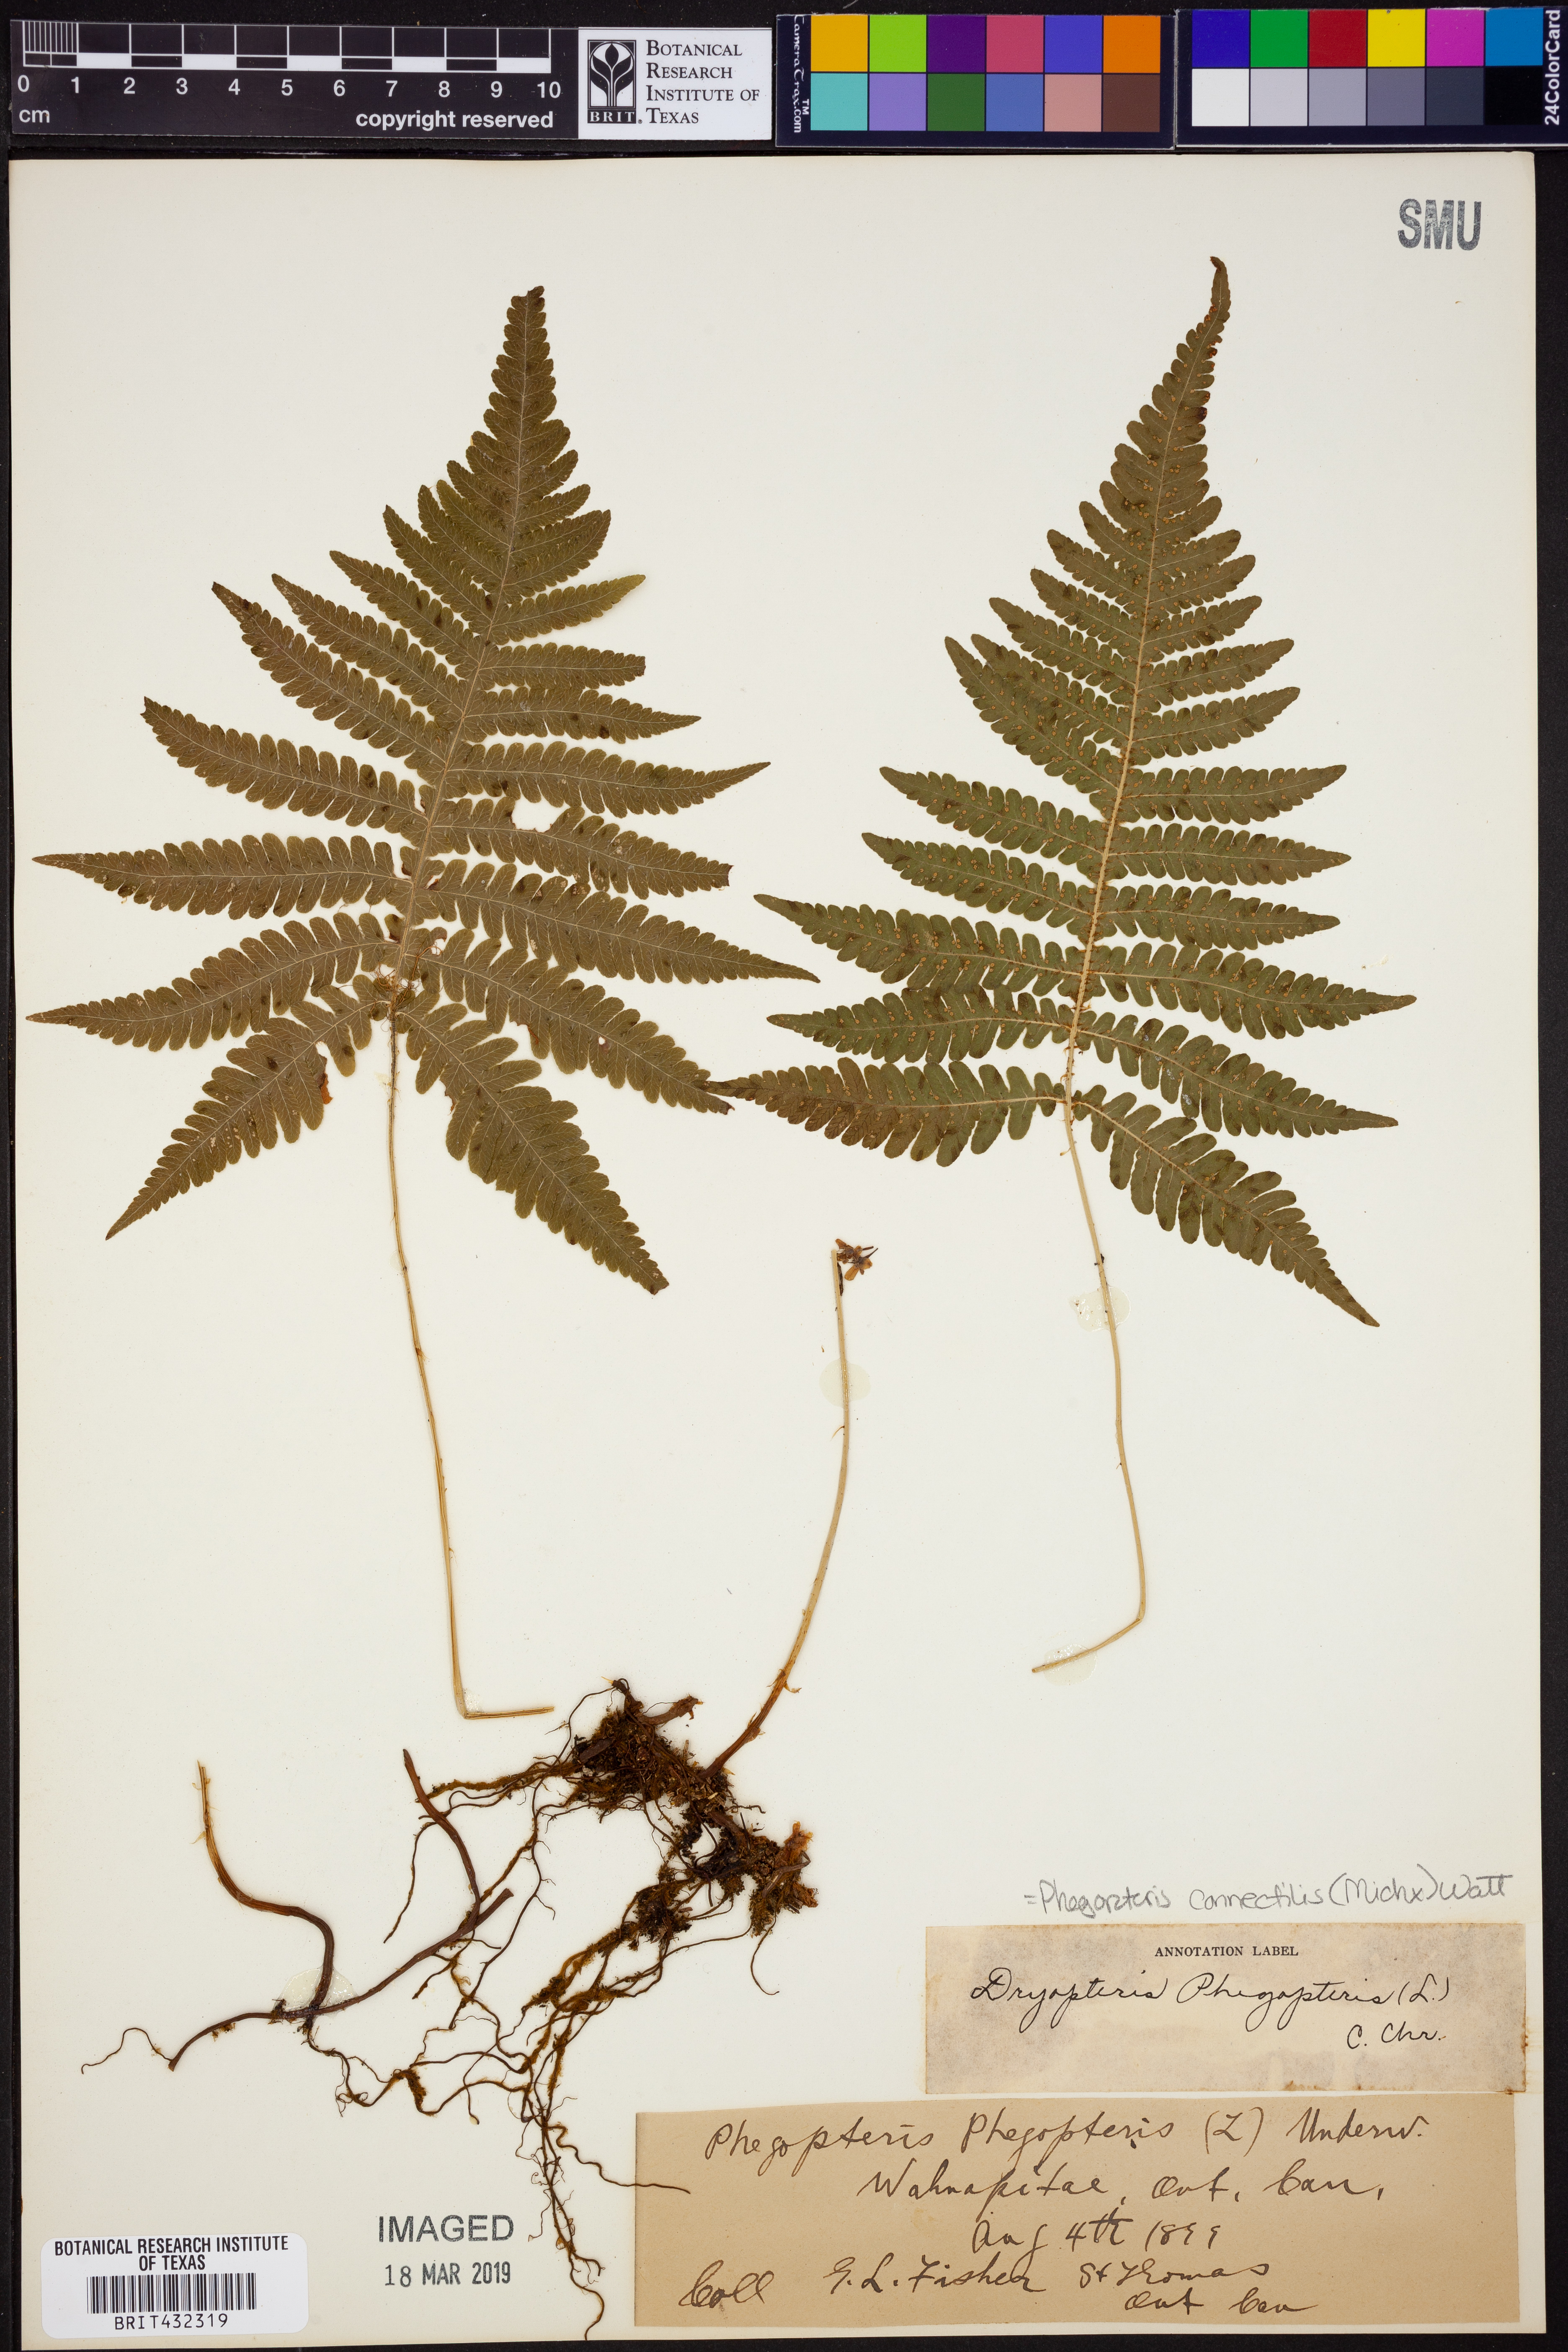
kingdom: Plantae
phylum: Tracheophyta
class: Polypodiopsida
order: Polypodiales
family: Thelypteridaceae
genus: Phegopteris
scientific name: Phegopteris connectilis
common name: Beech fern
